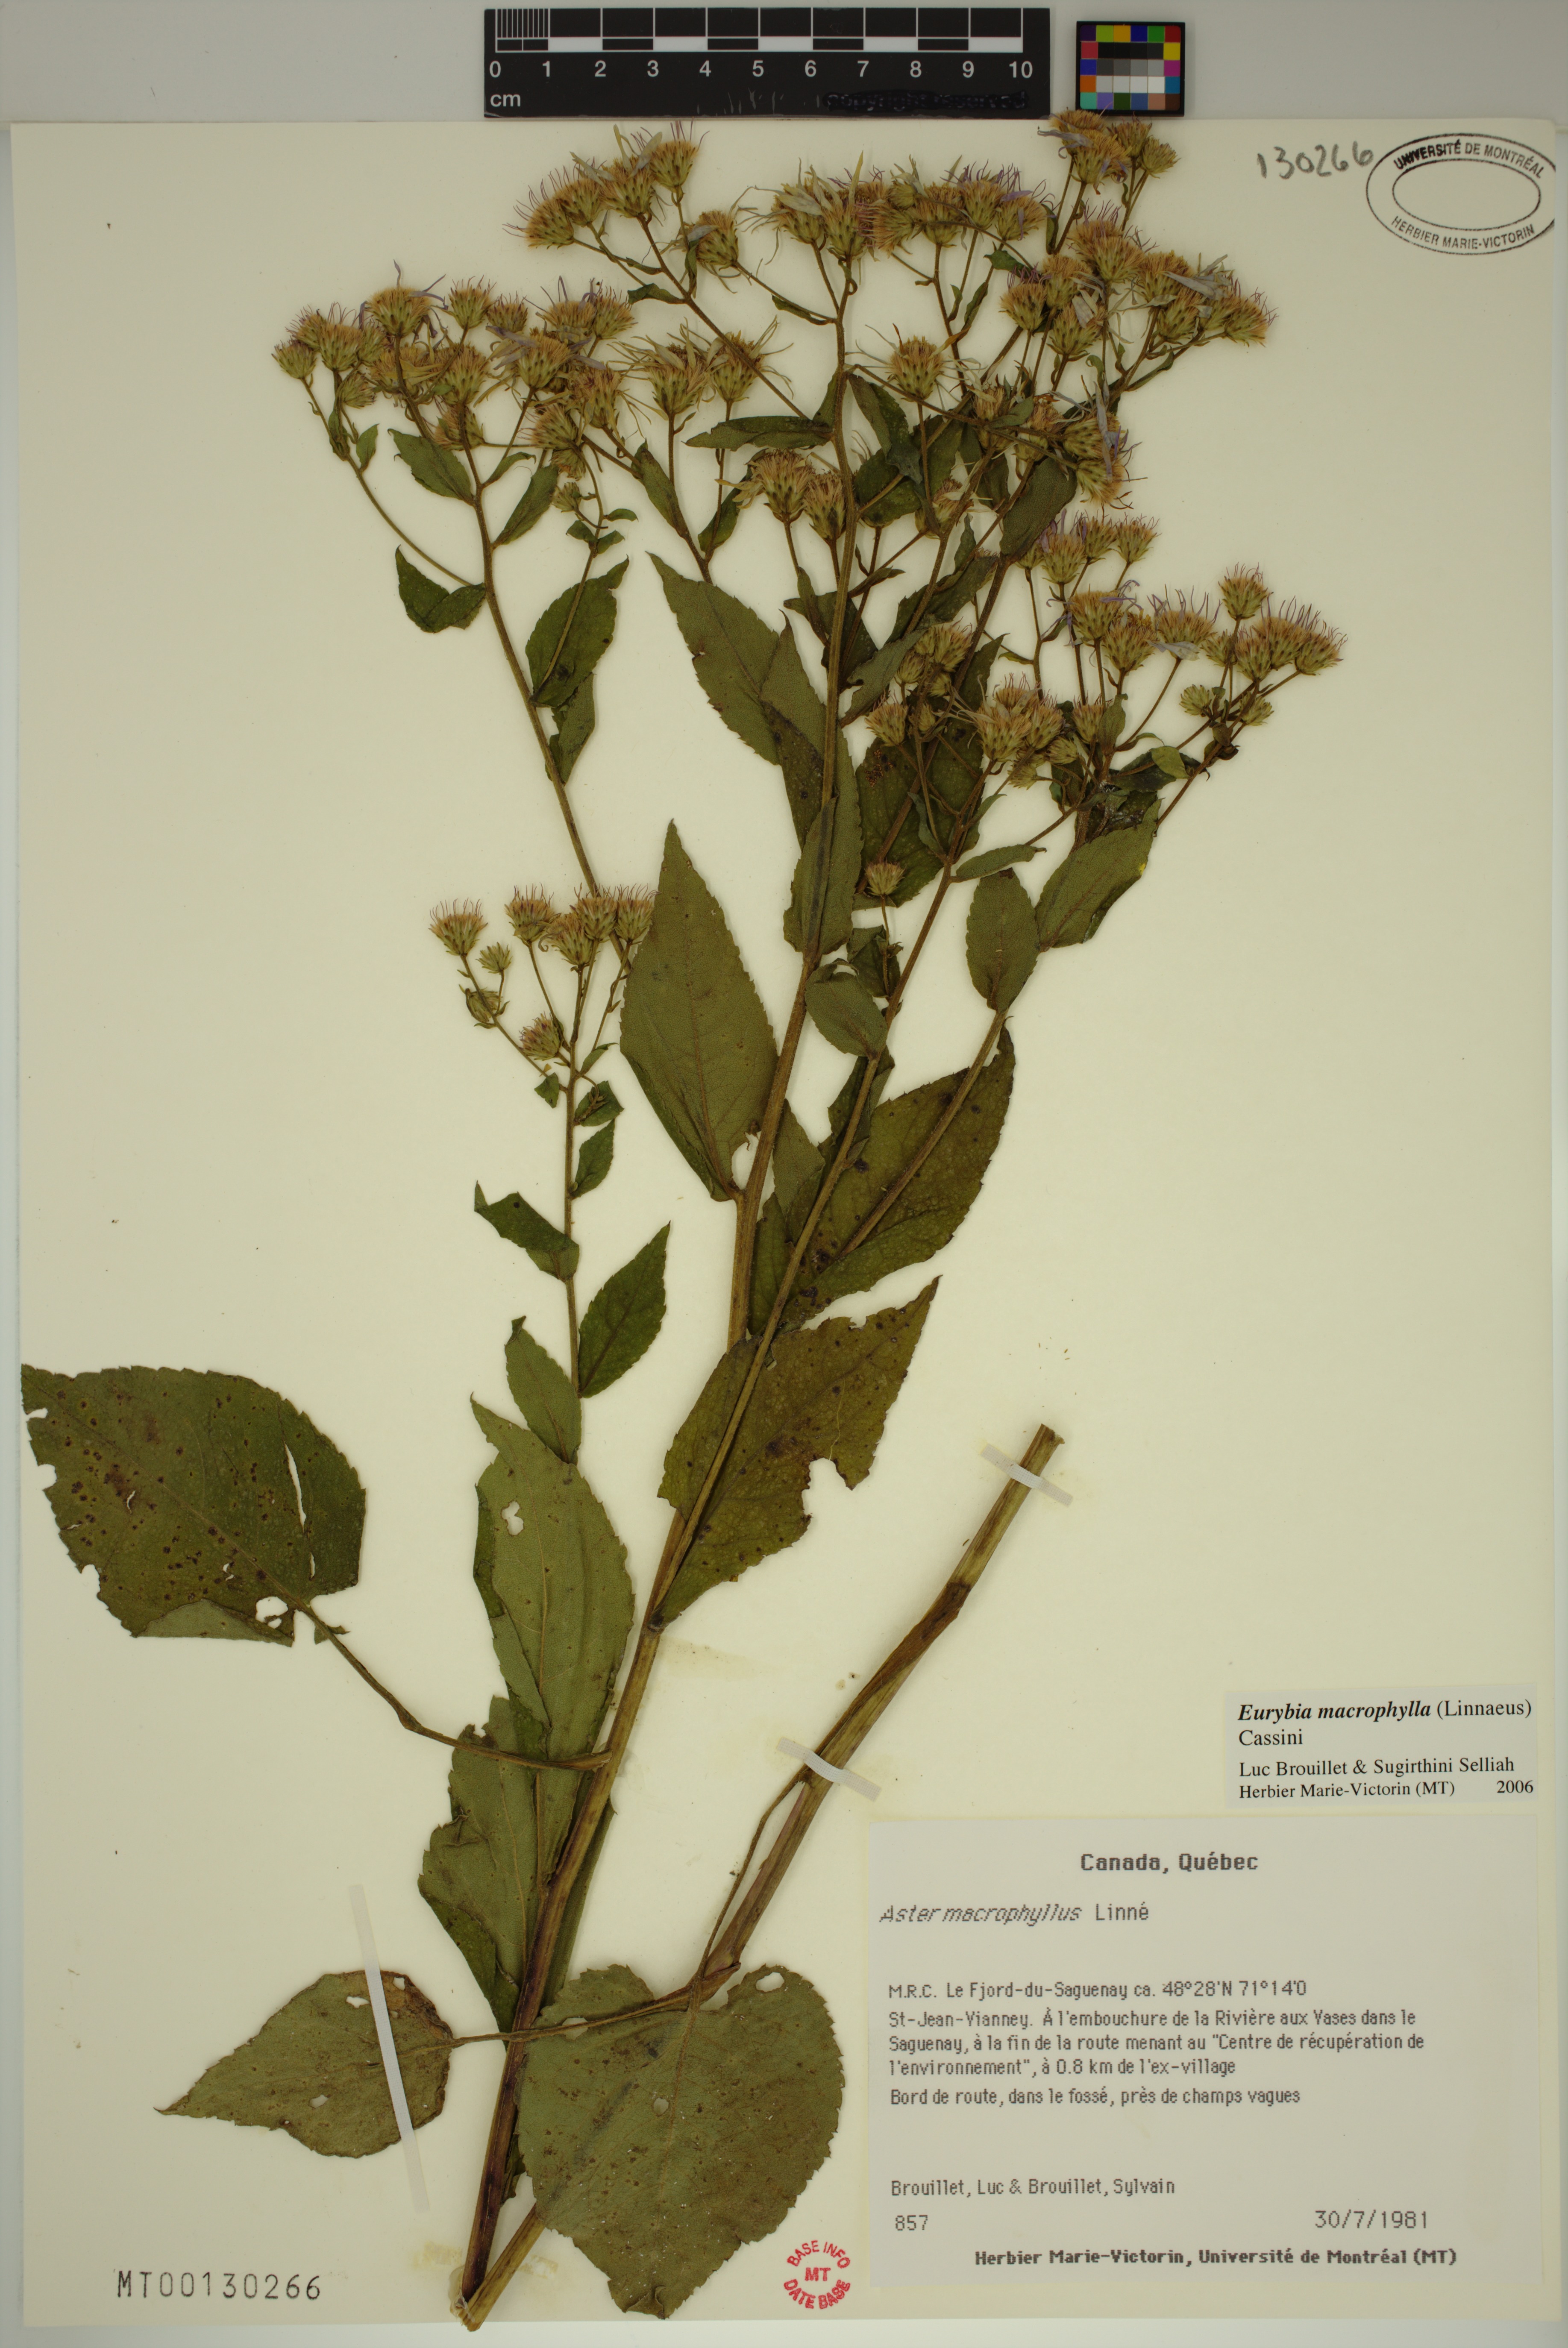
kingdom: Plantae
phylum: Tracheophyta
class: Magnoliopsida
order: Asterales
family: Asteraceae
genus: Eurybia
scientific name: Eurybia macrophylla
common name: Big-leaved aster
